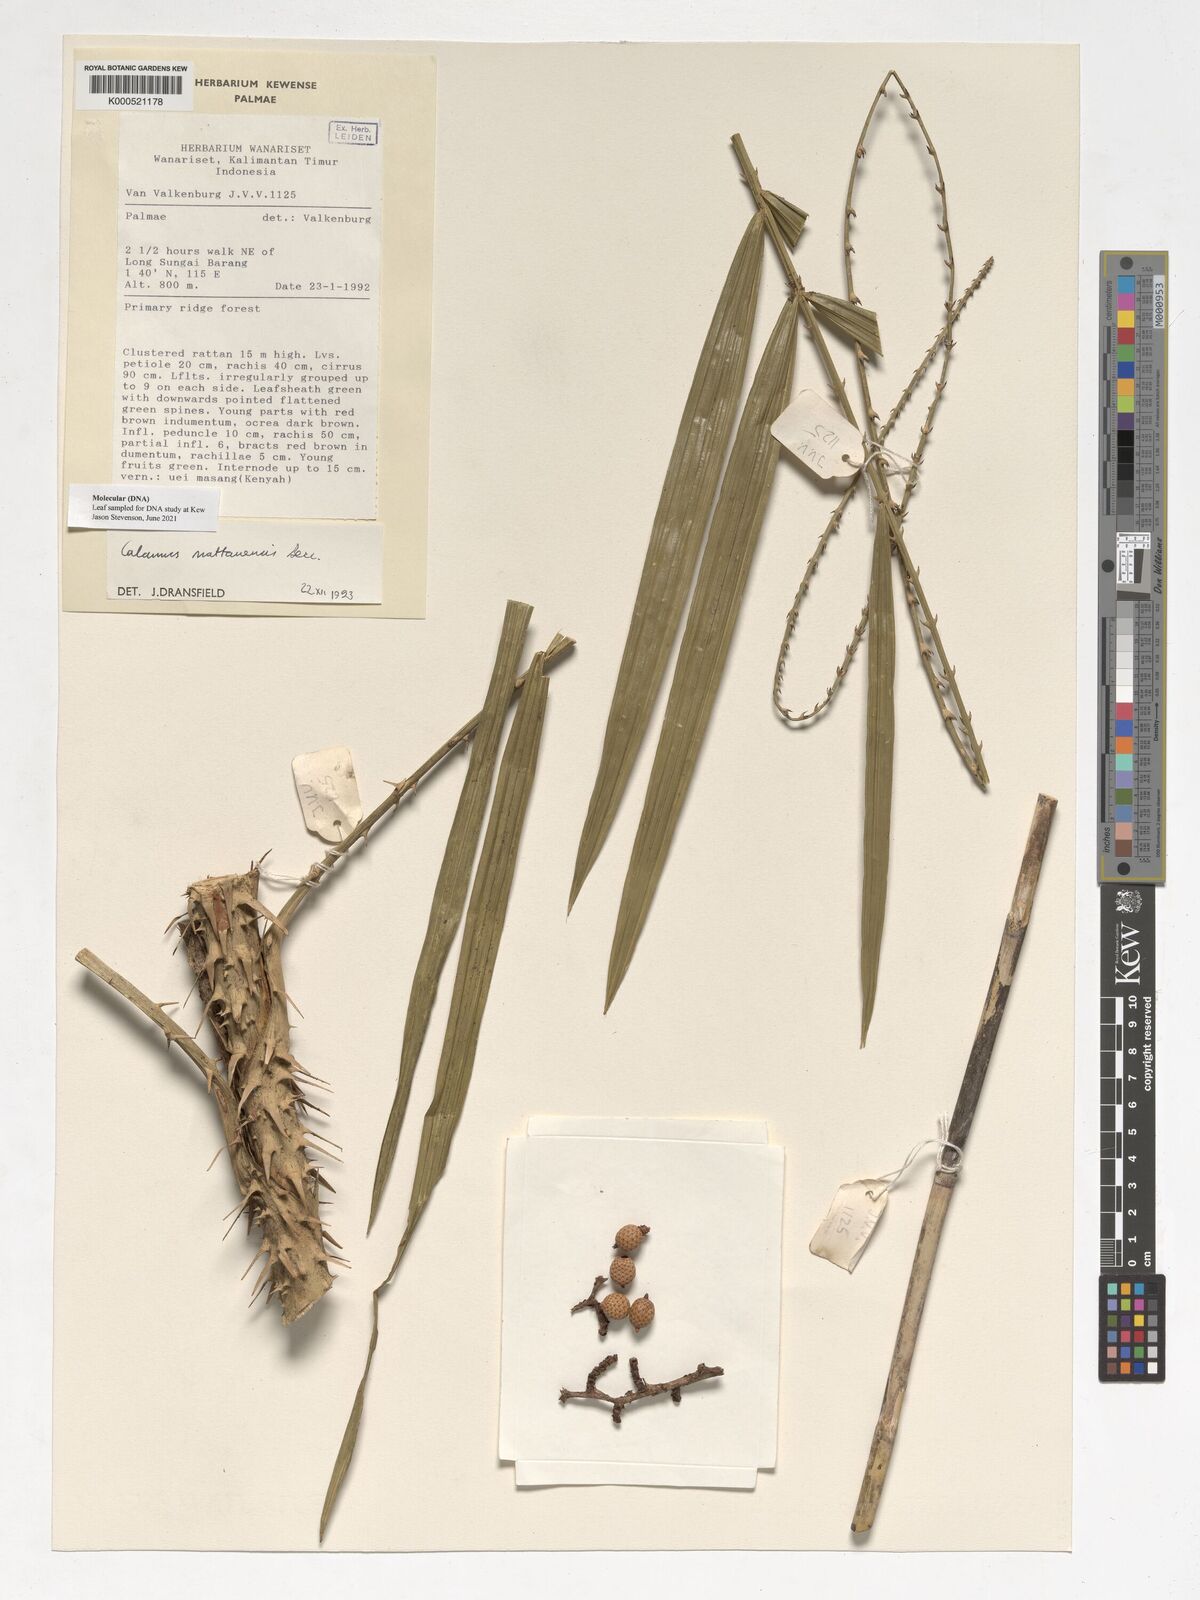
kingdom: Plantae
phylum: Tracheophyta
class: Liliopsida
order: Arecales
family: Arecaceae
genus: Calamus
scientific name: Calamus
